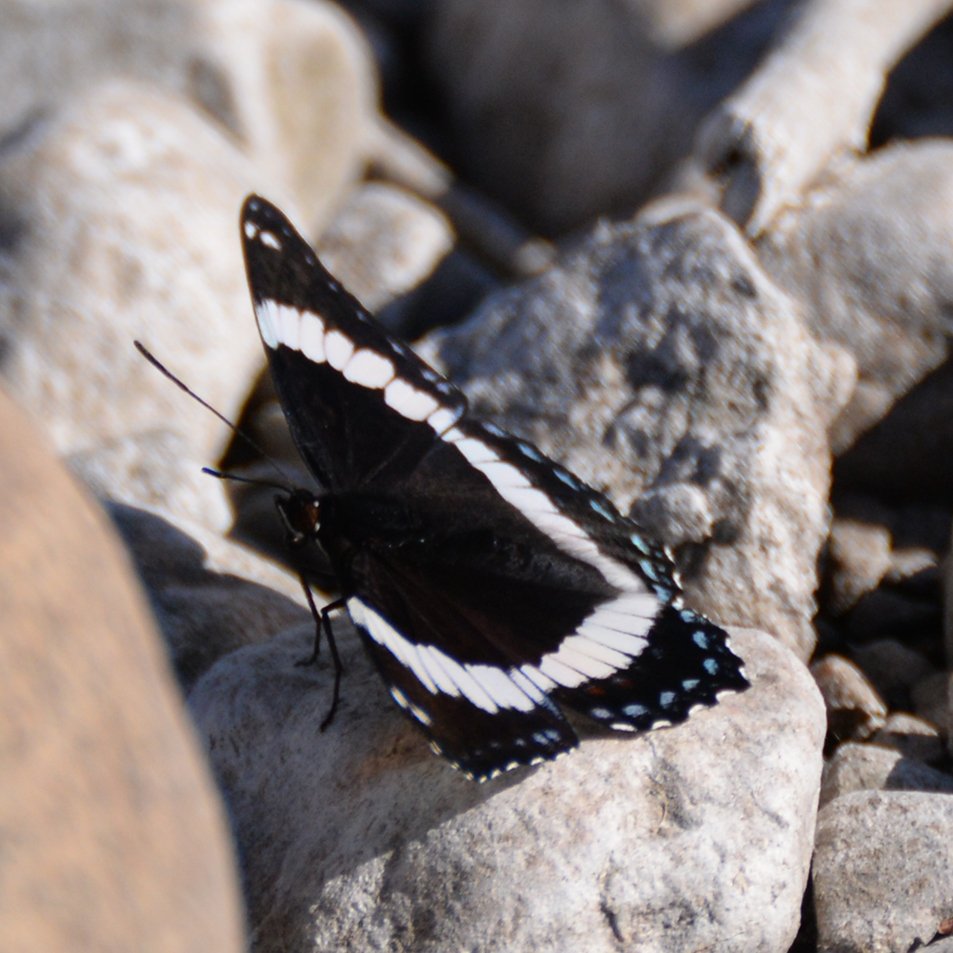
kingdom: Animalia
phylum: Arthropoda
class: Insecta
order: Lepidoptera
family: Nymphalidae
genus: Limenitis
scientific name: Limenitis arthemis
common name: Red-spotted Admiral
